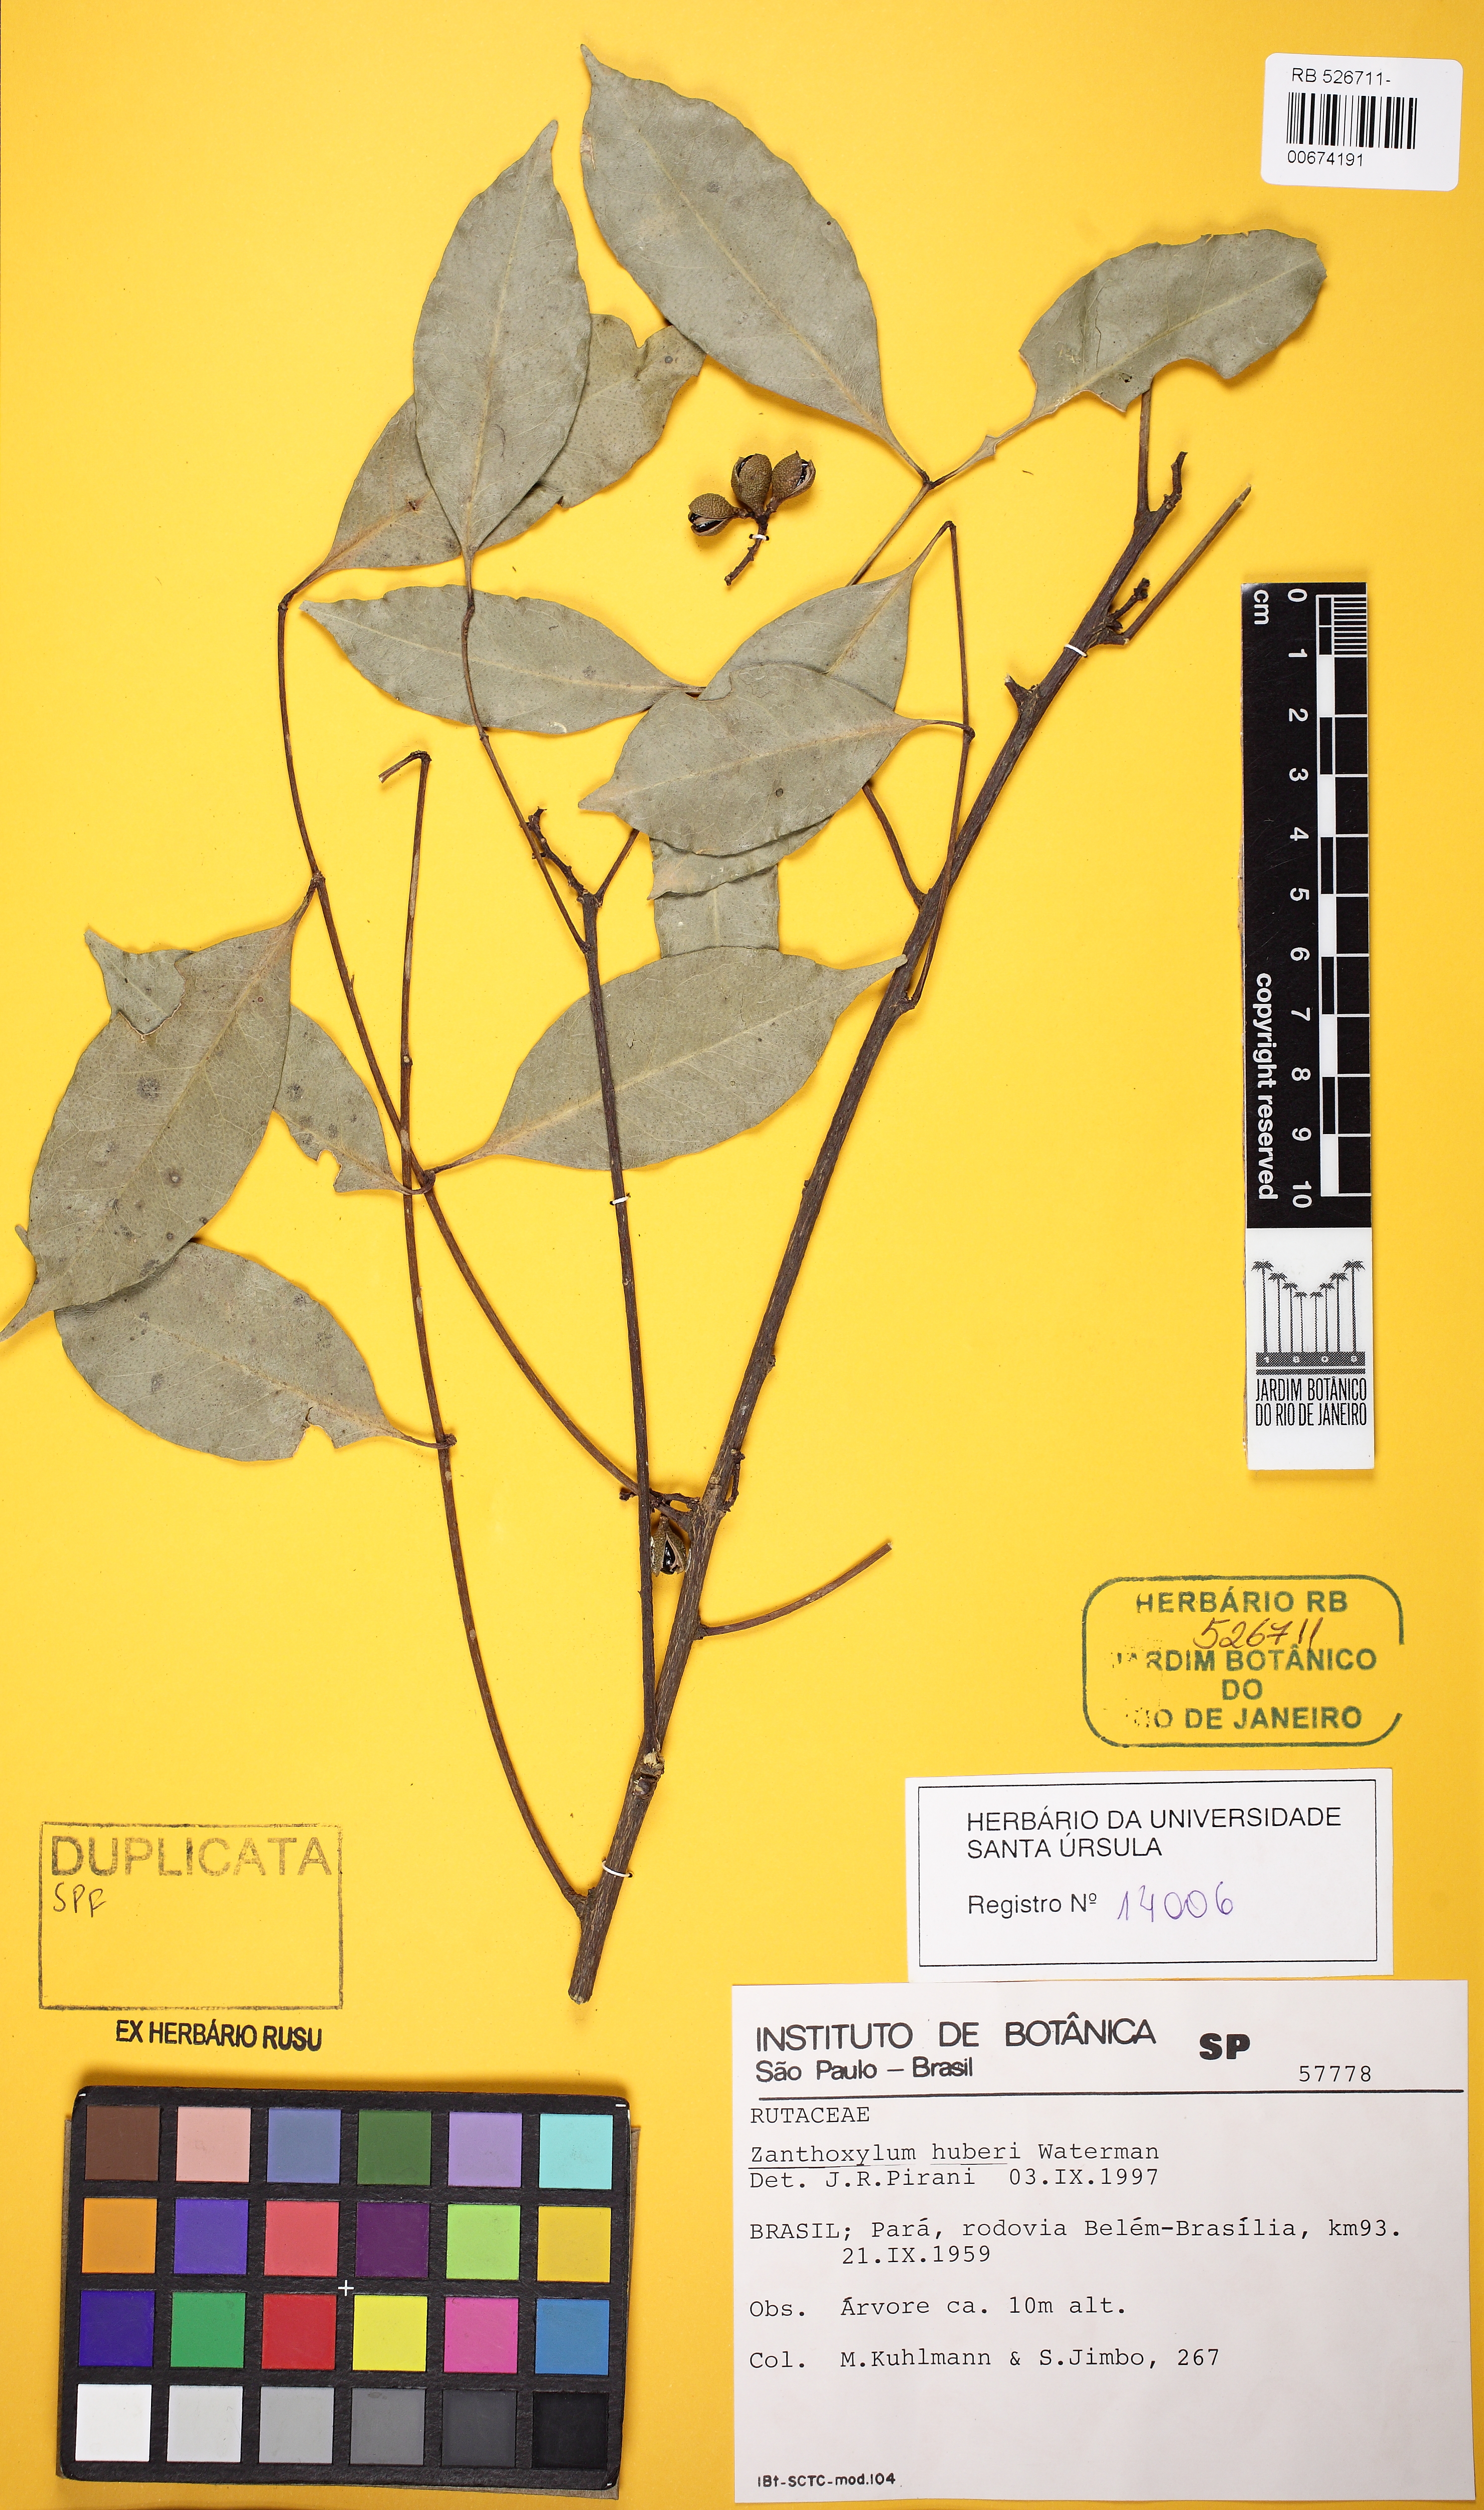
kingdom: Plantae
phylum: Tracheophyta
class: Magnoliopsida
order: Sapindales
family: Rutaceae
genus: Zanthoxylum
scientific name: Zanthoxylum huberi
